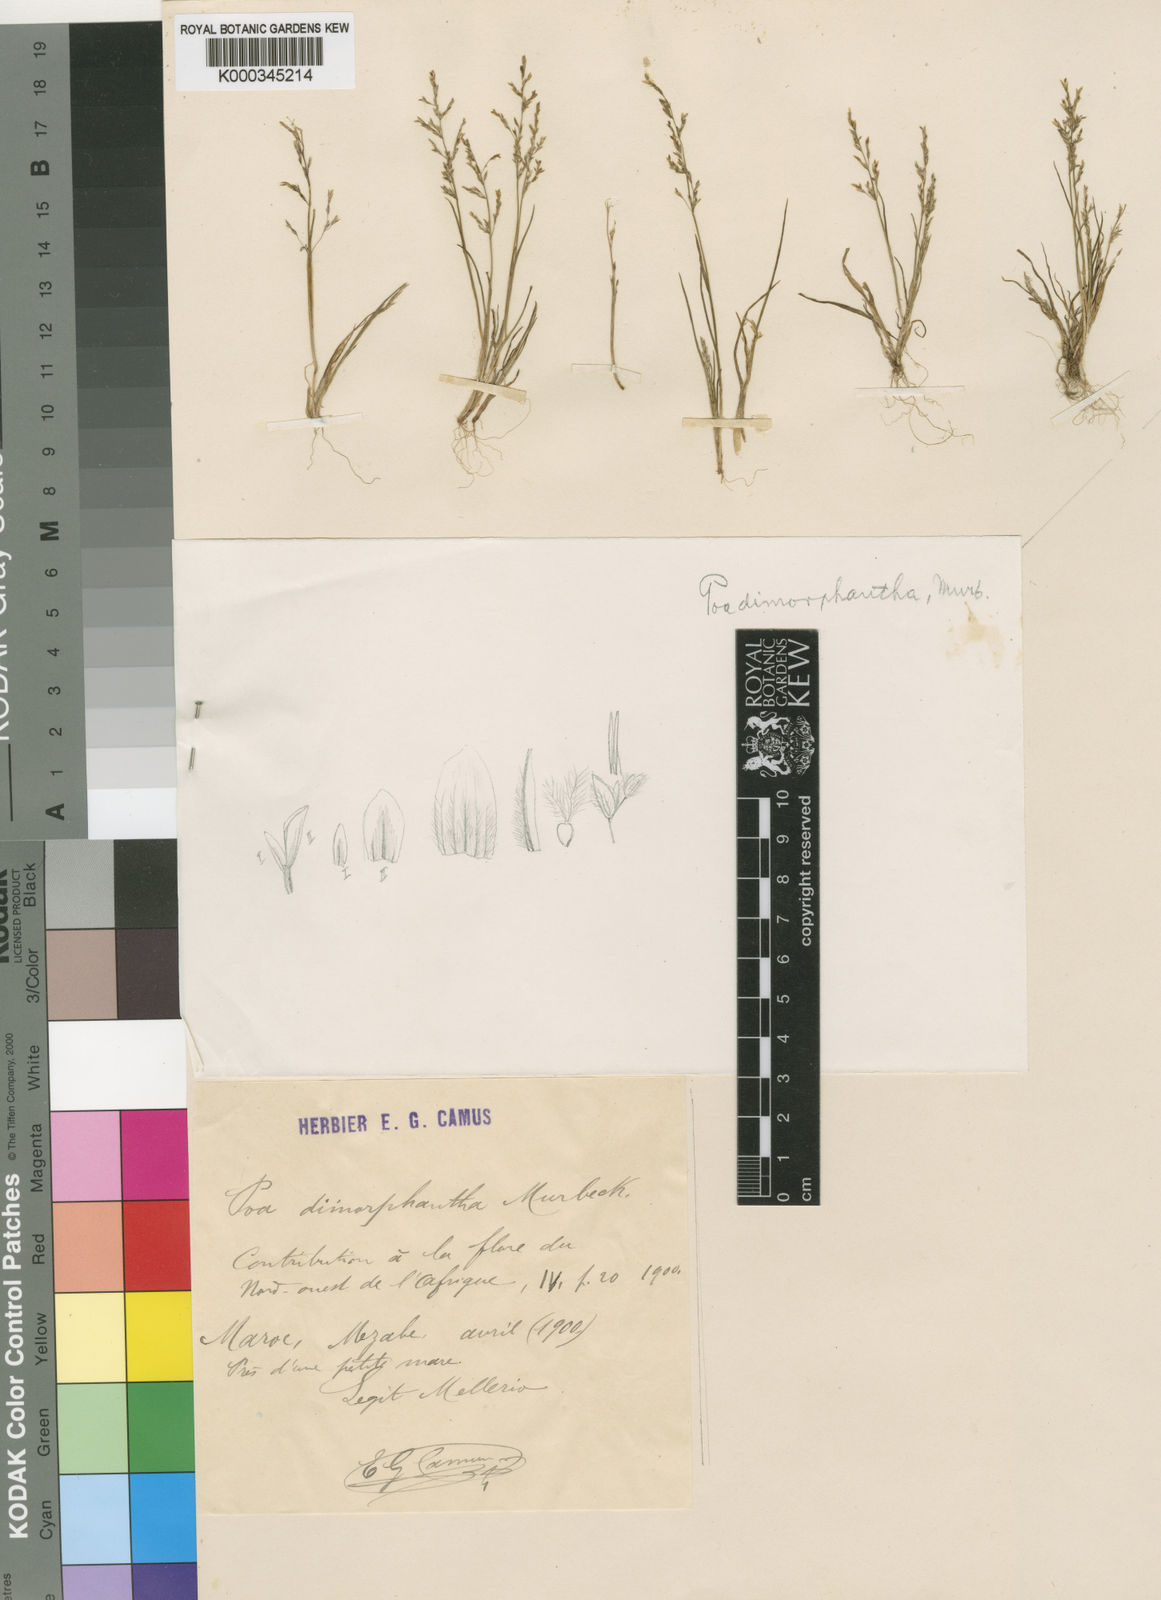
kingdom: Plantae
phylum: Tracheophyta
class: Liliopsida
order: Poales
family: Poaceae
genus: Poa
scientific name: Poa dimorphantha
